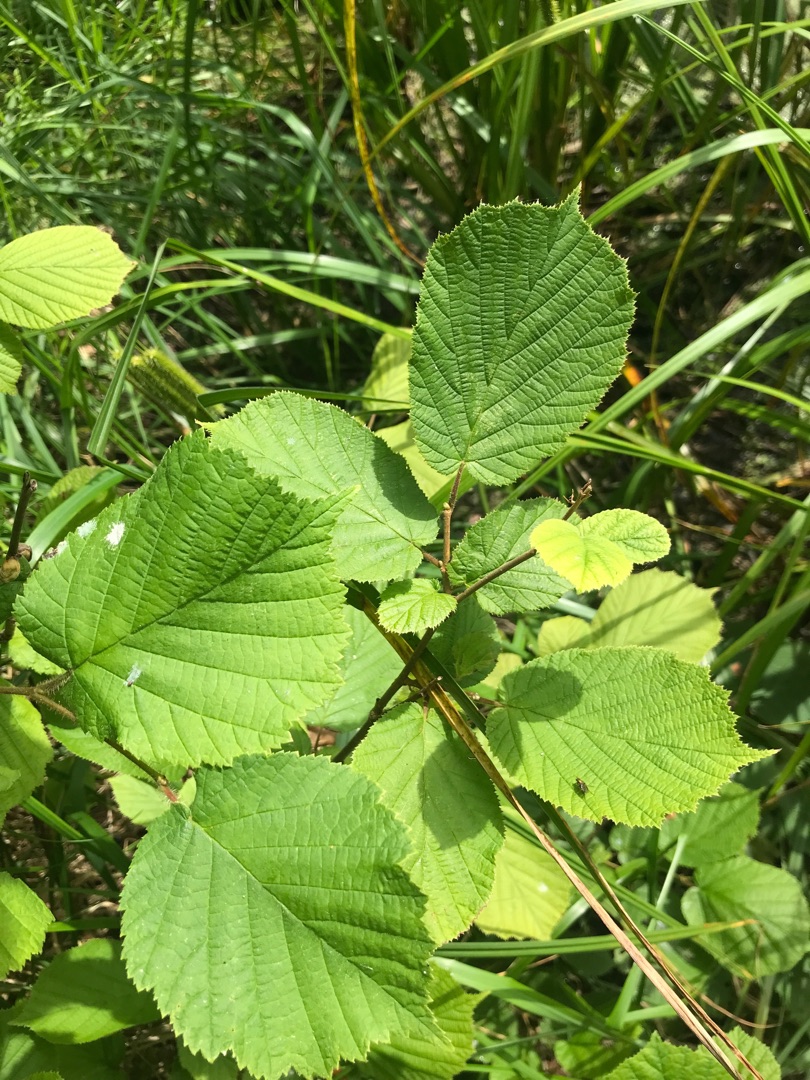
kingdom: Plantae
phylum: Tracheophyta
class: Magnoliopsida
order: Fagales
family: Betulaceae
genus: Corylus
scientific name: Corylus avellana
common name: Hassel
